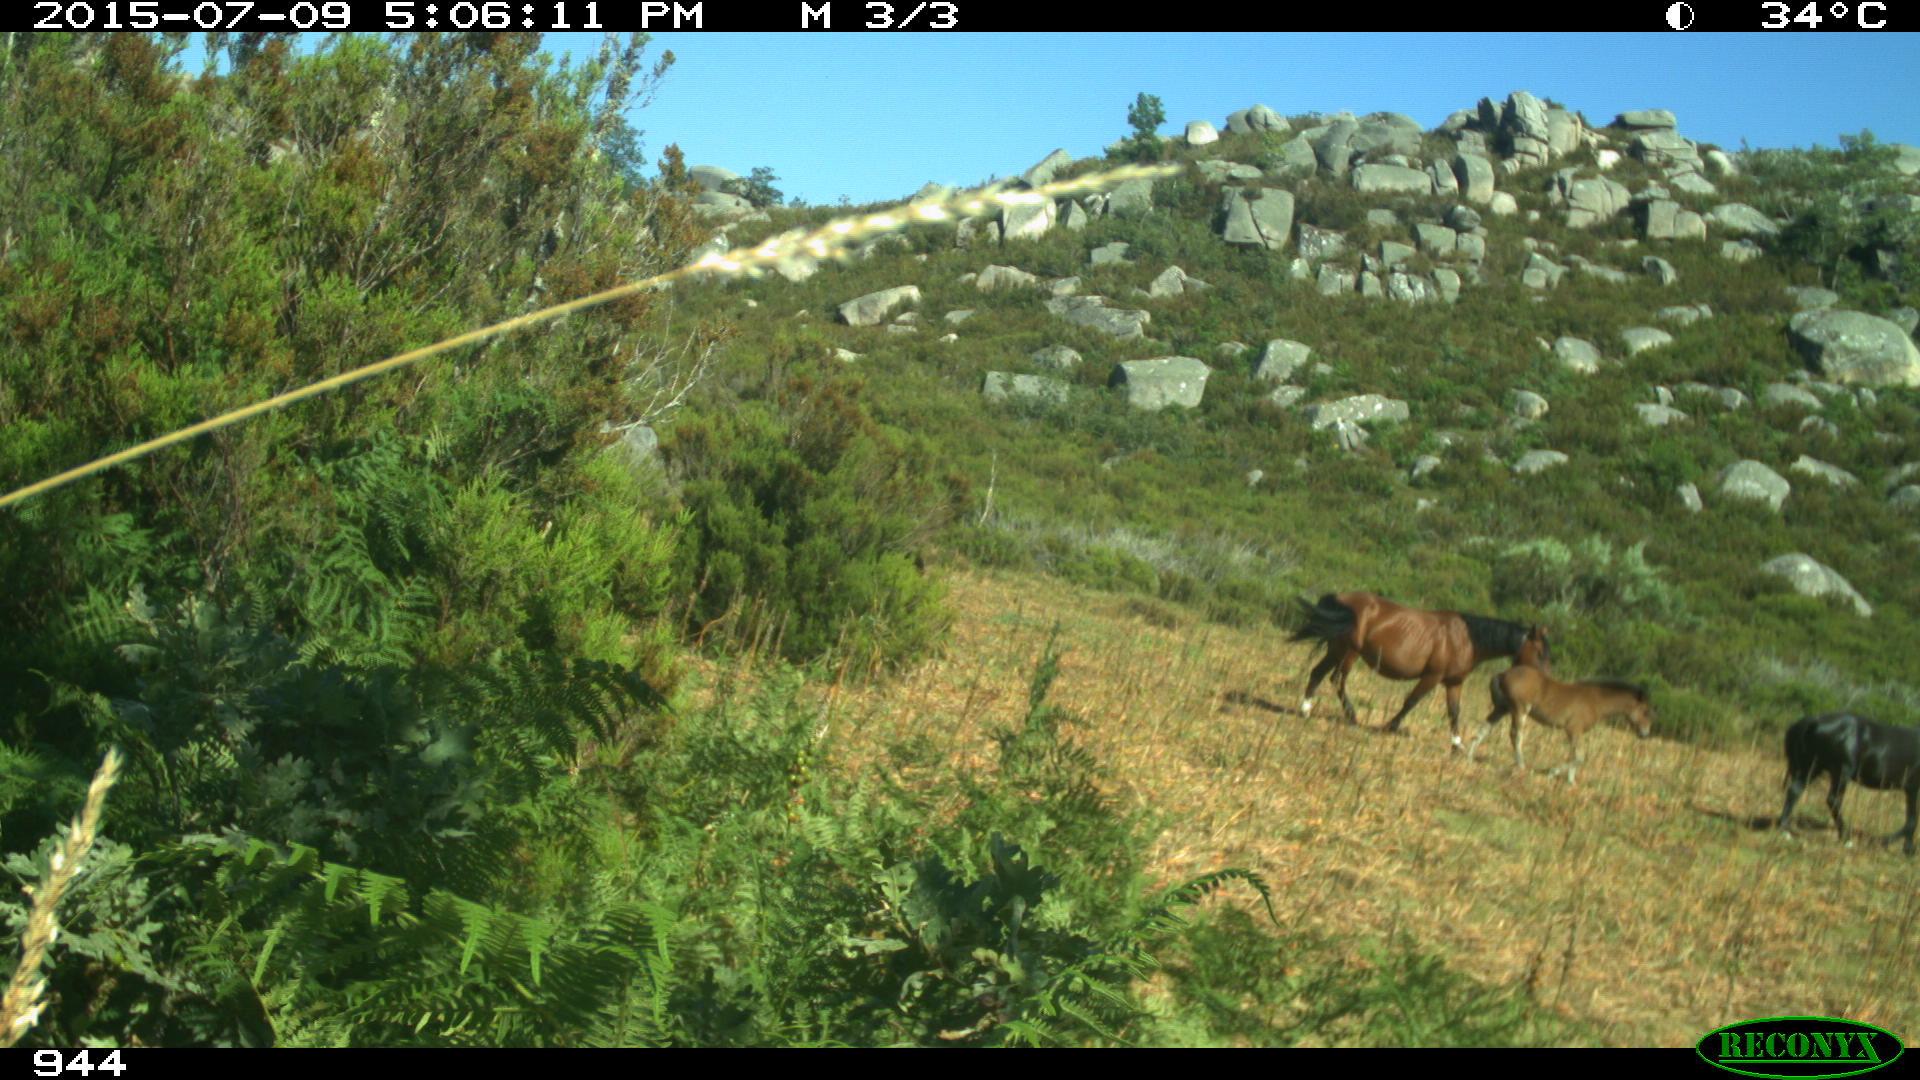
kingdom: Animalia
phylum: Chordata
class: Mammalia
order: Perissodactyla
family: Equidae
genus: Equus
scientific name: Equus caballus
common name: Horse
